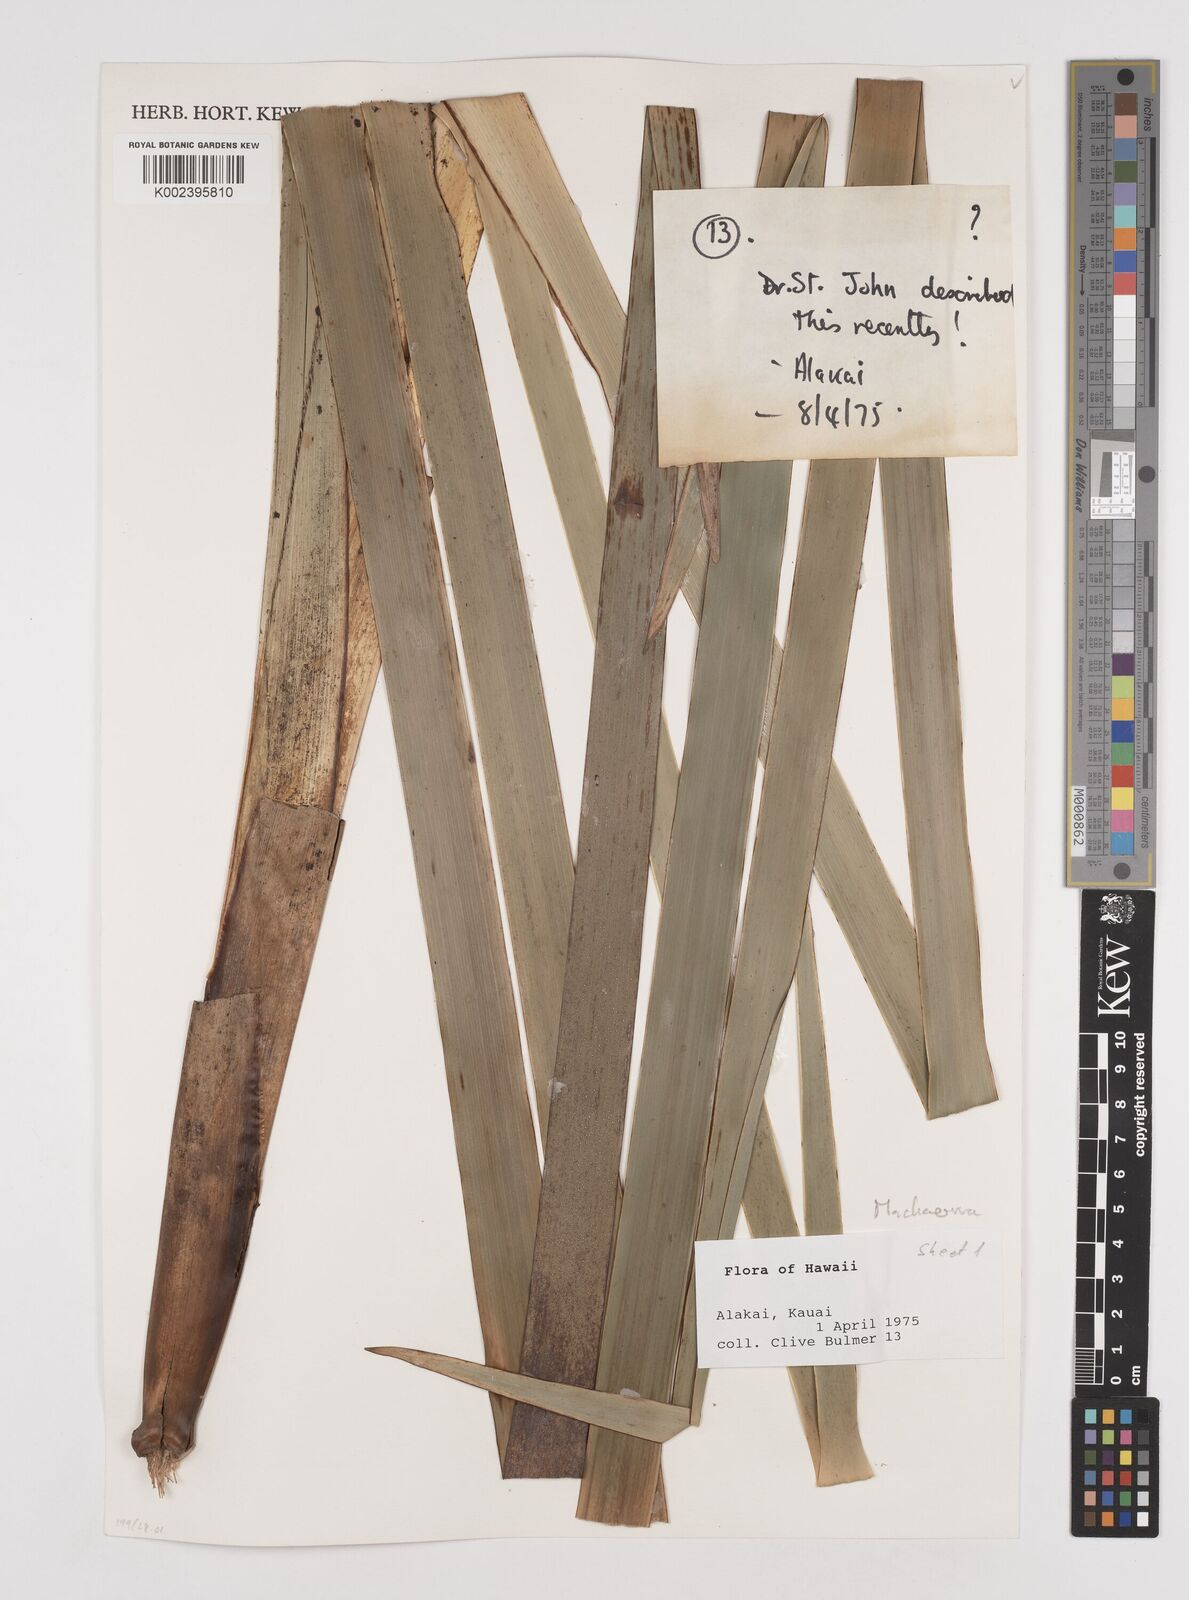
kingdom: Plantae
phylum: Tracheophyta
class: Liliopsida
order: Poales
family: Cyperaceae
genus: Machaerina
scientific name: Machaerina
